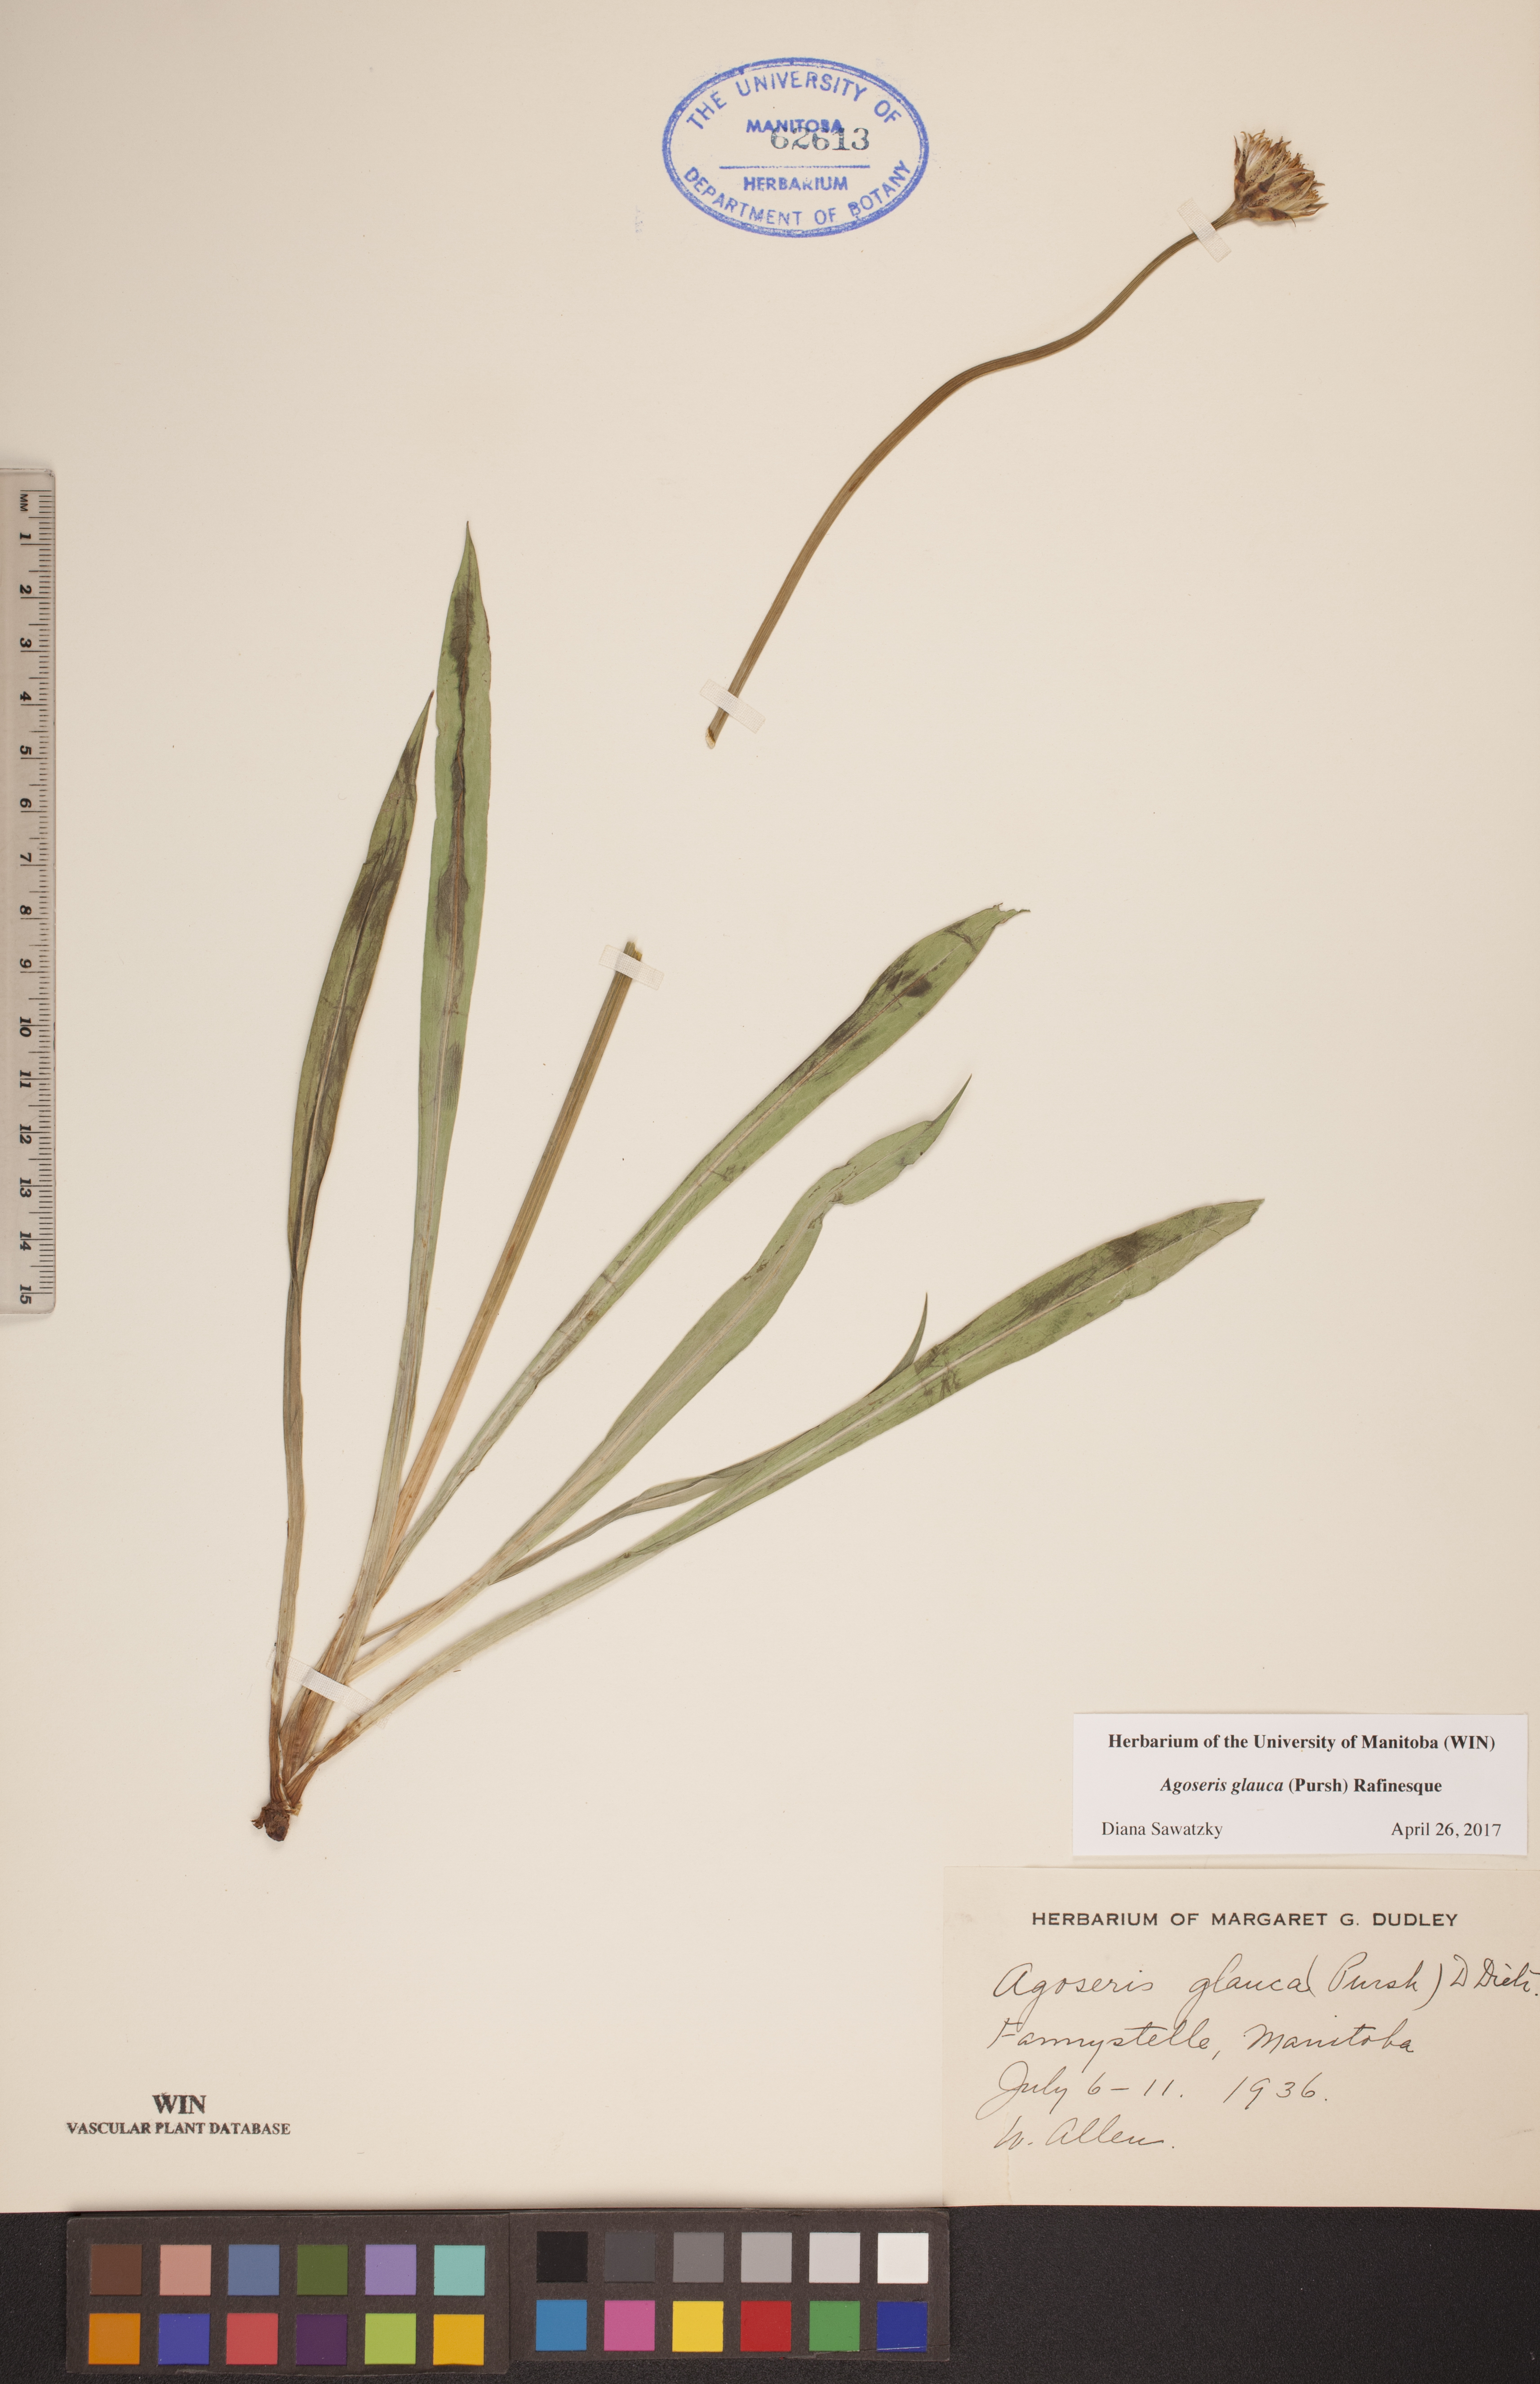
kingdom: Plantae
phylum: Tracheophyta
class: Magnoliopsida
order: Asterales
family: Asteraceae
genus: Agoseris
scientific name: Agoseris glauca
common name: Prairie agoseris
